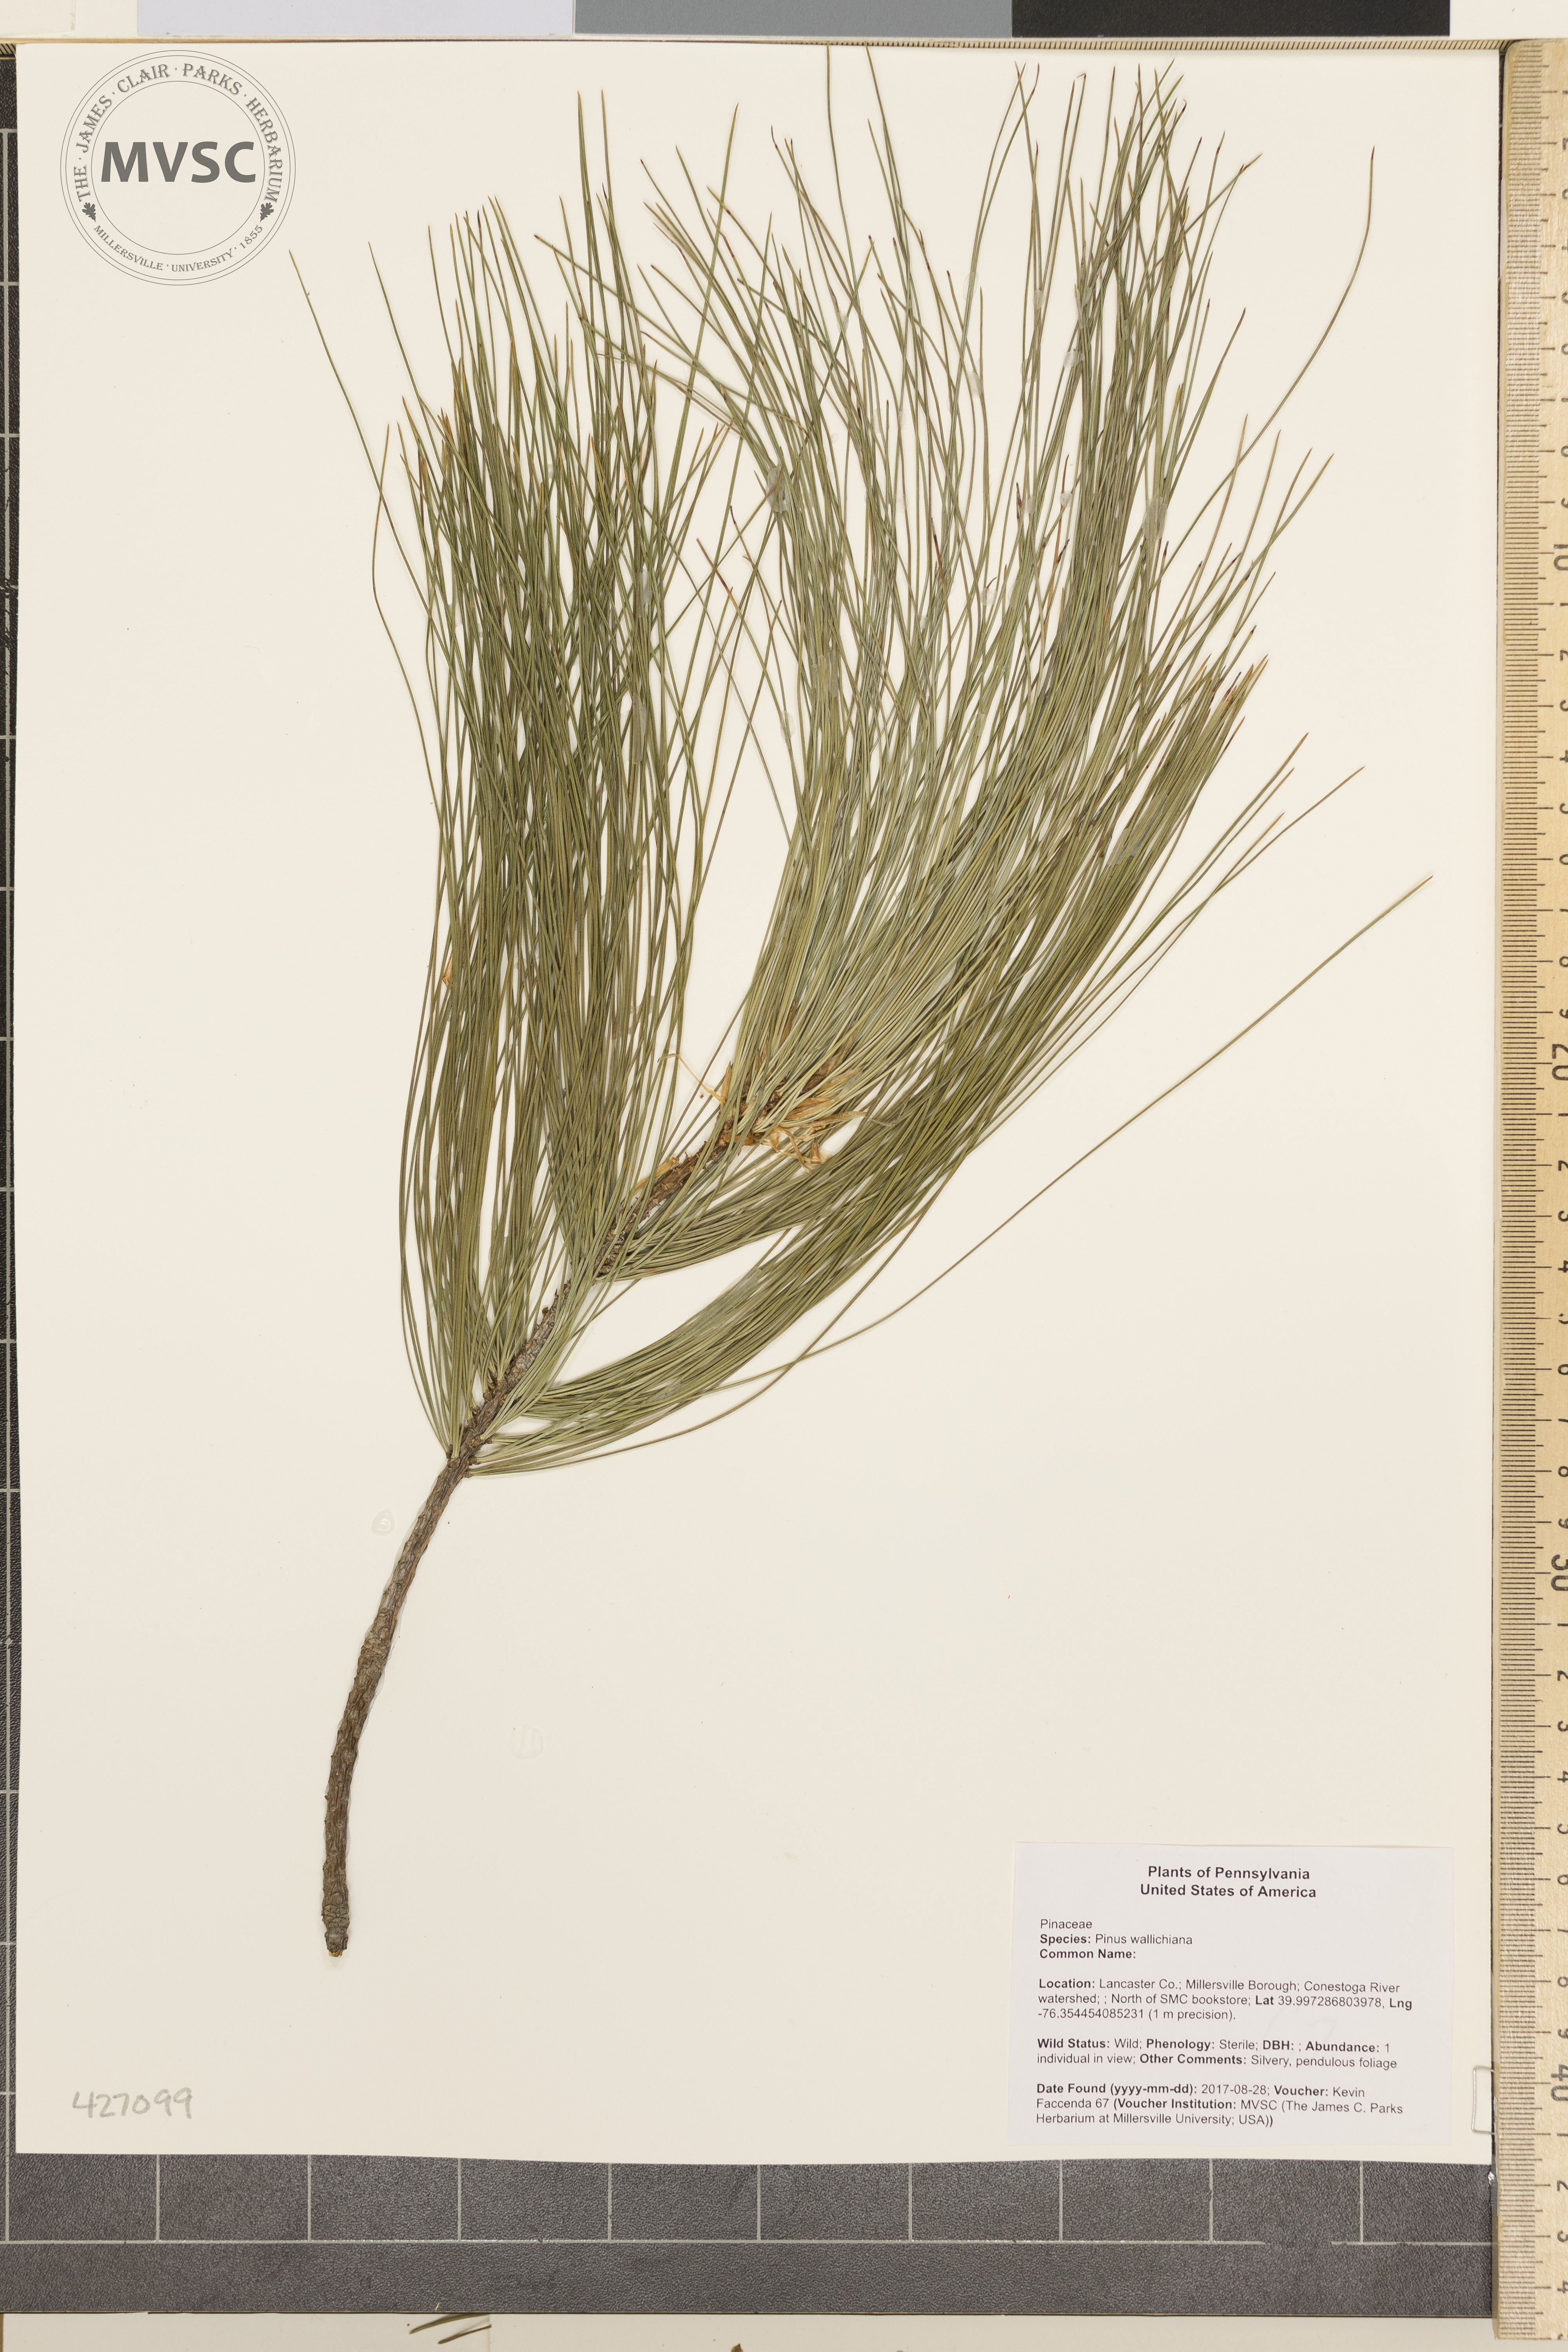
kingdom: Plantae
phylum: Tracheophyta
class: Pinopsida
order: Pinales
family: Pinaceae
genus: Pinus
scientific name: Pinus wallichiana
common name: Bhutan pine
